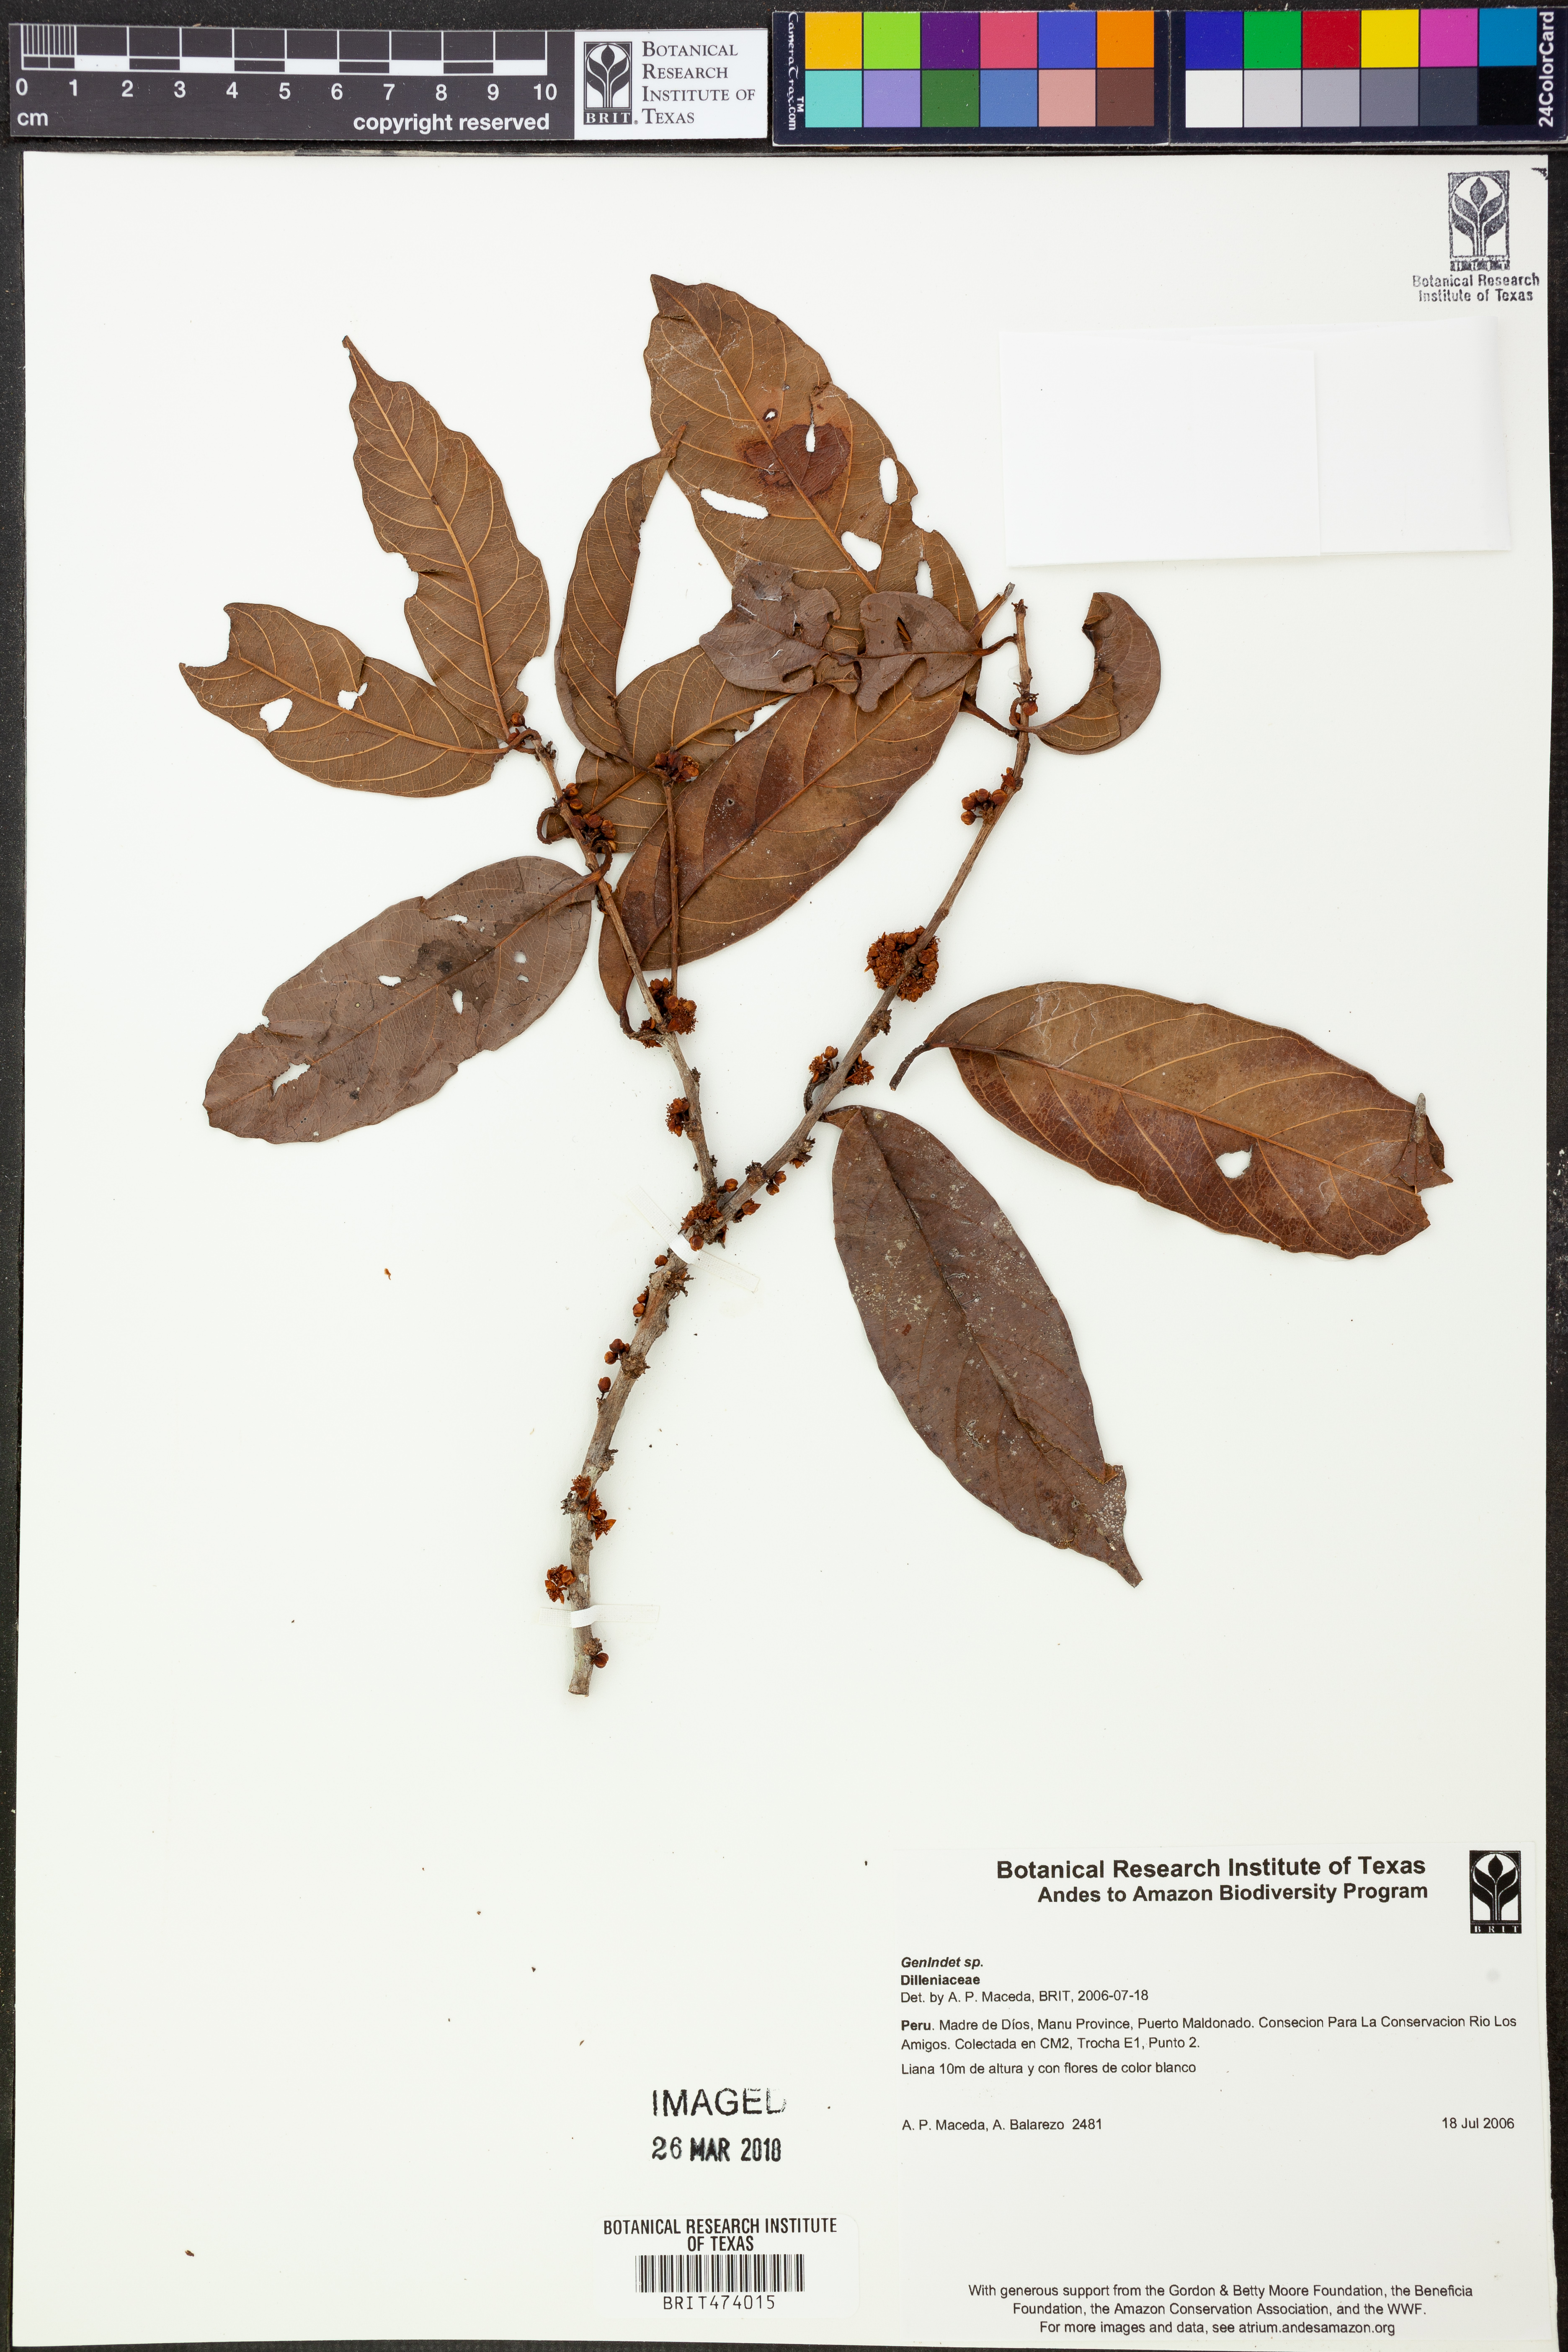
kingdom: Plantae
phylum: Tracheophyta
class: Magnoliopsida
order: Dilleniales
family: Dilleniaceae
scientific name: Dilleniaceae
